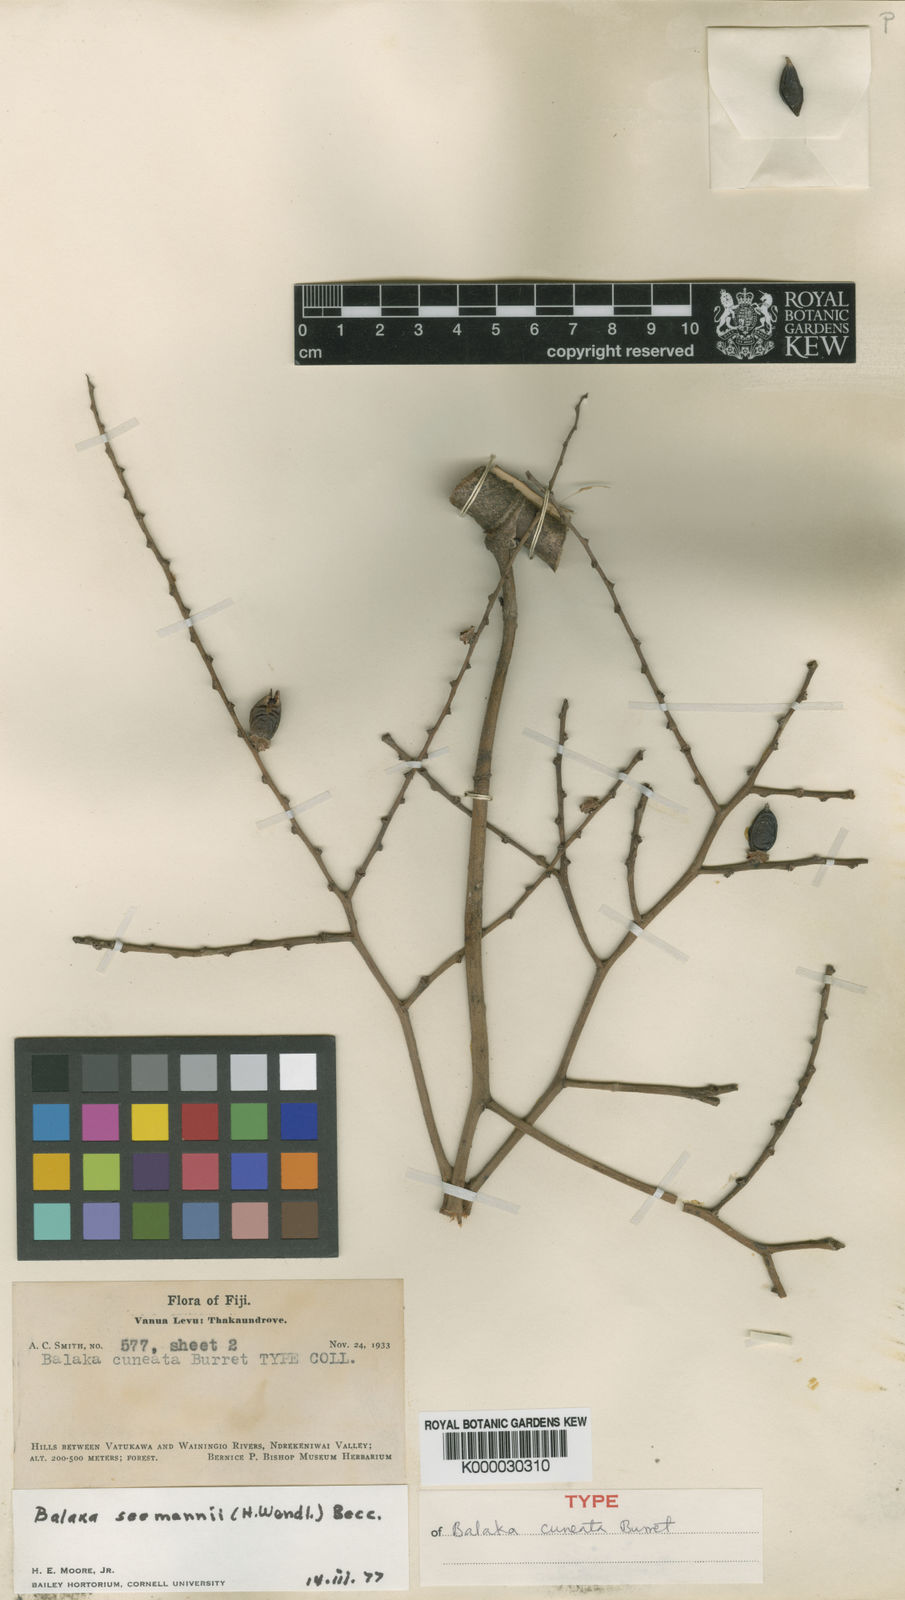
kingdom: Plantae
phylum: Tracheophyta
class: Liliopsida
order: Arecales
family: Arecaceae
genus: Balaka
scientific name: Balaka seemannii
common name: Balaka palm
